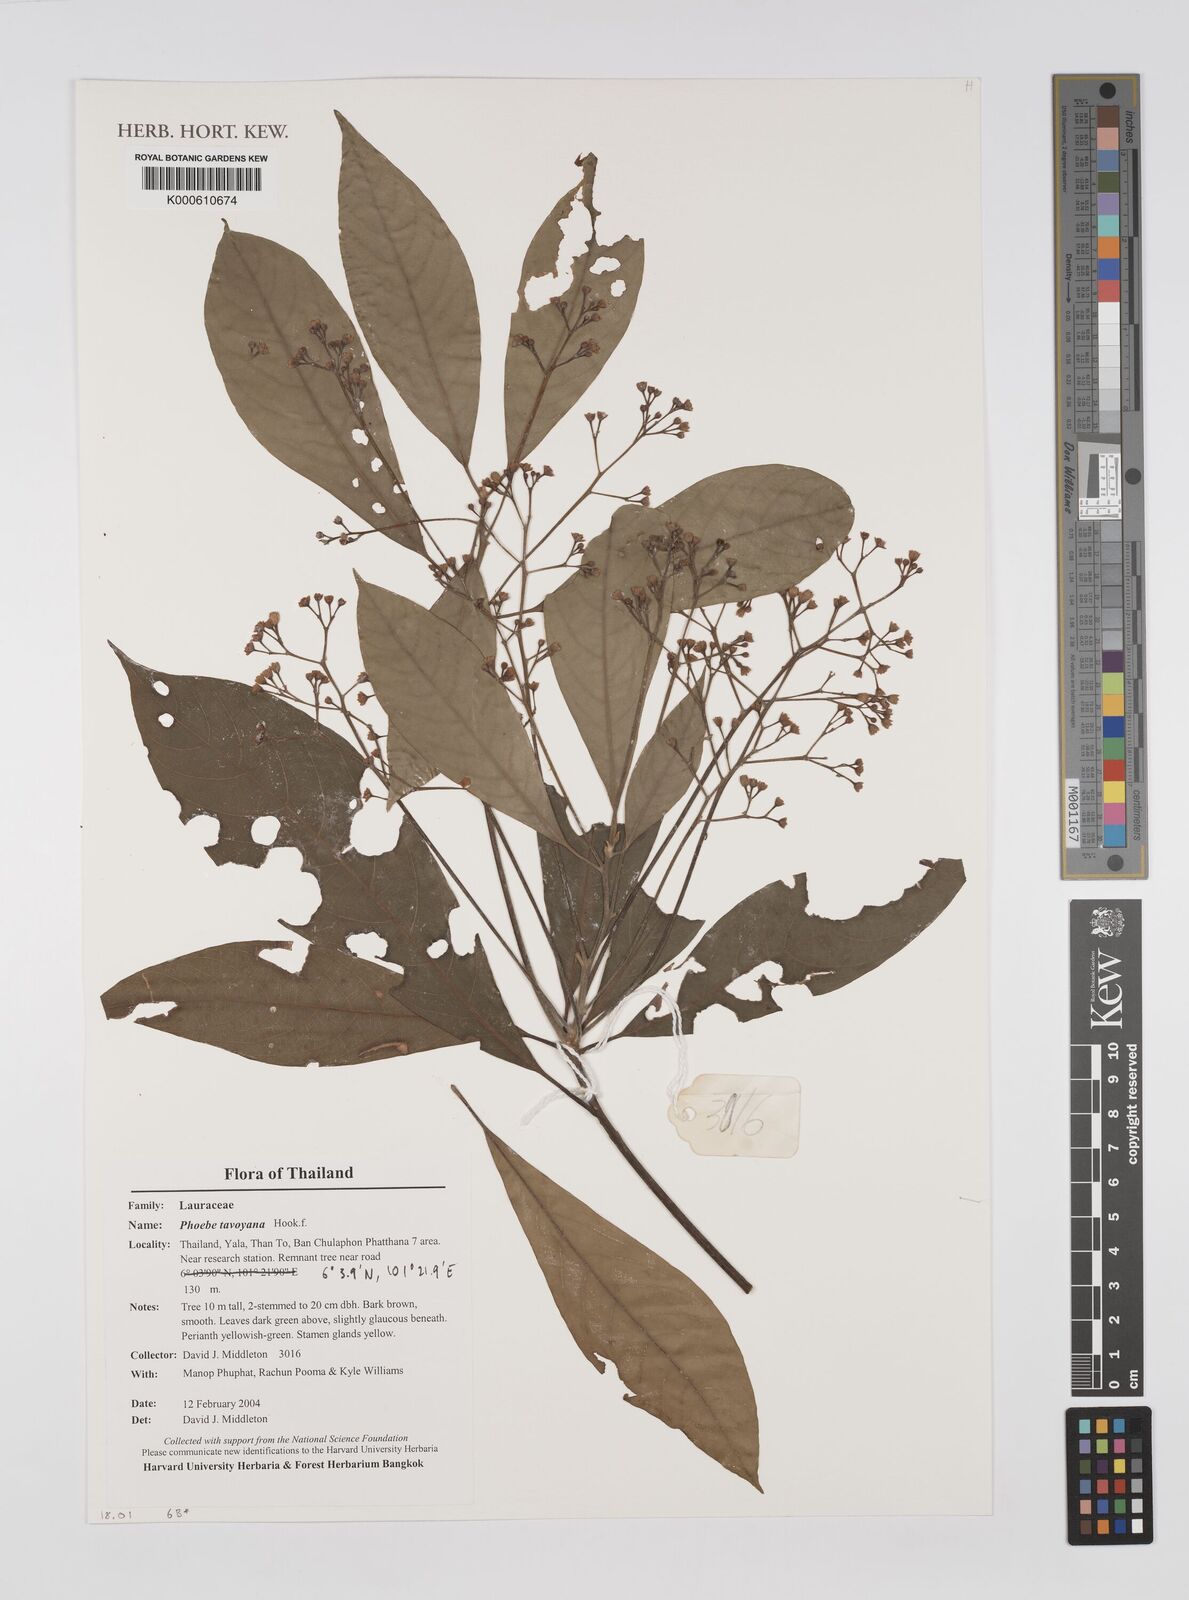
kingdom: Plantae
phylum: Tracheophyta
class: Magnoliopsida
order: Laurales
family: Lauraceae
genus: Persea
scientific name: Persea
